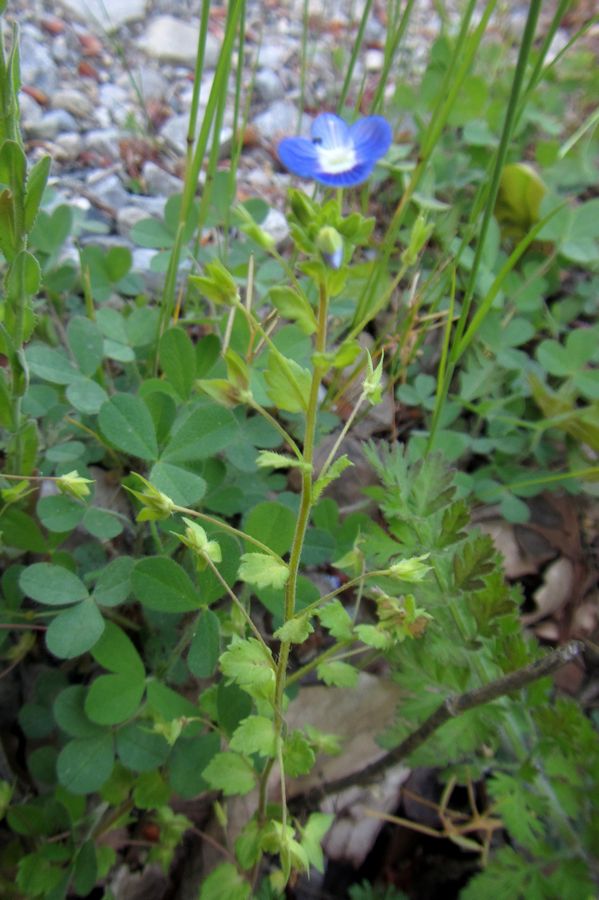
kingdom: Plantae
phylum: Tracheophyta
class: Magnoliopsida
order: Lamiales
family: Plantaginaceae
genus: Veronica
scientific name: Veronica
